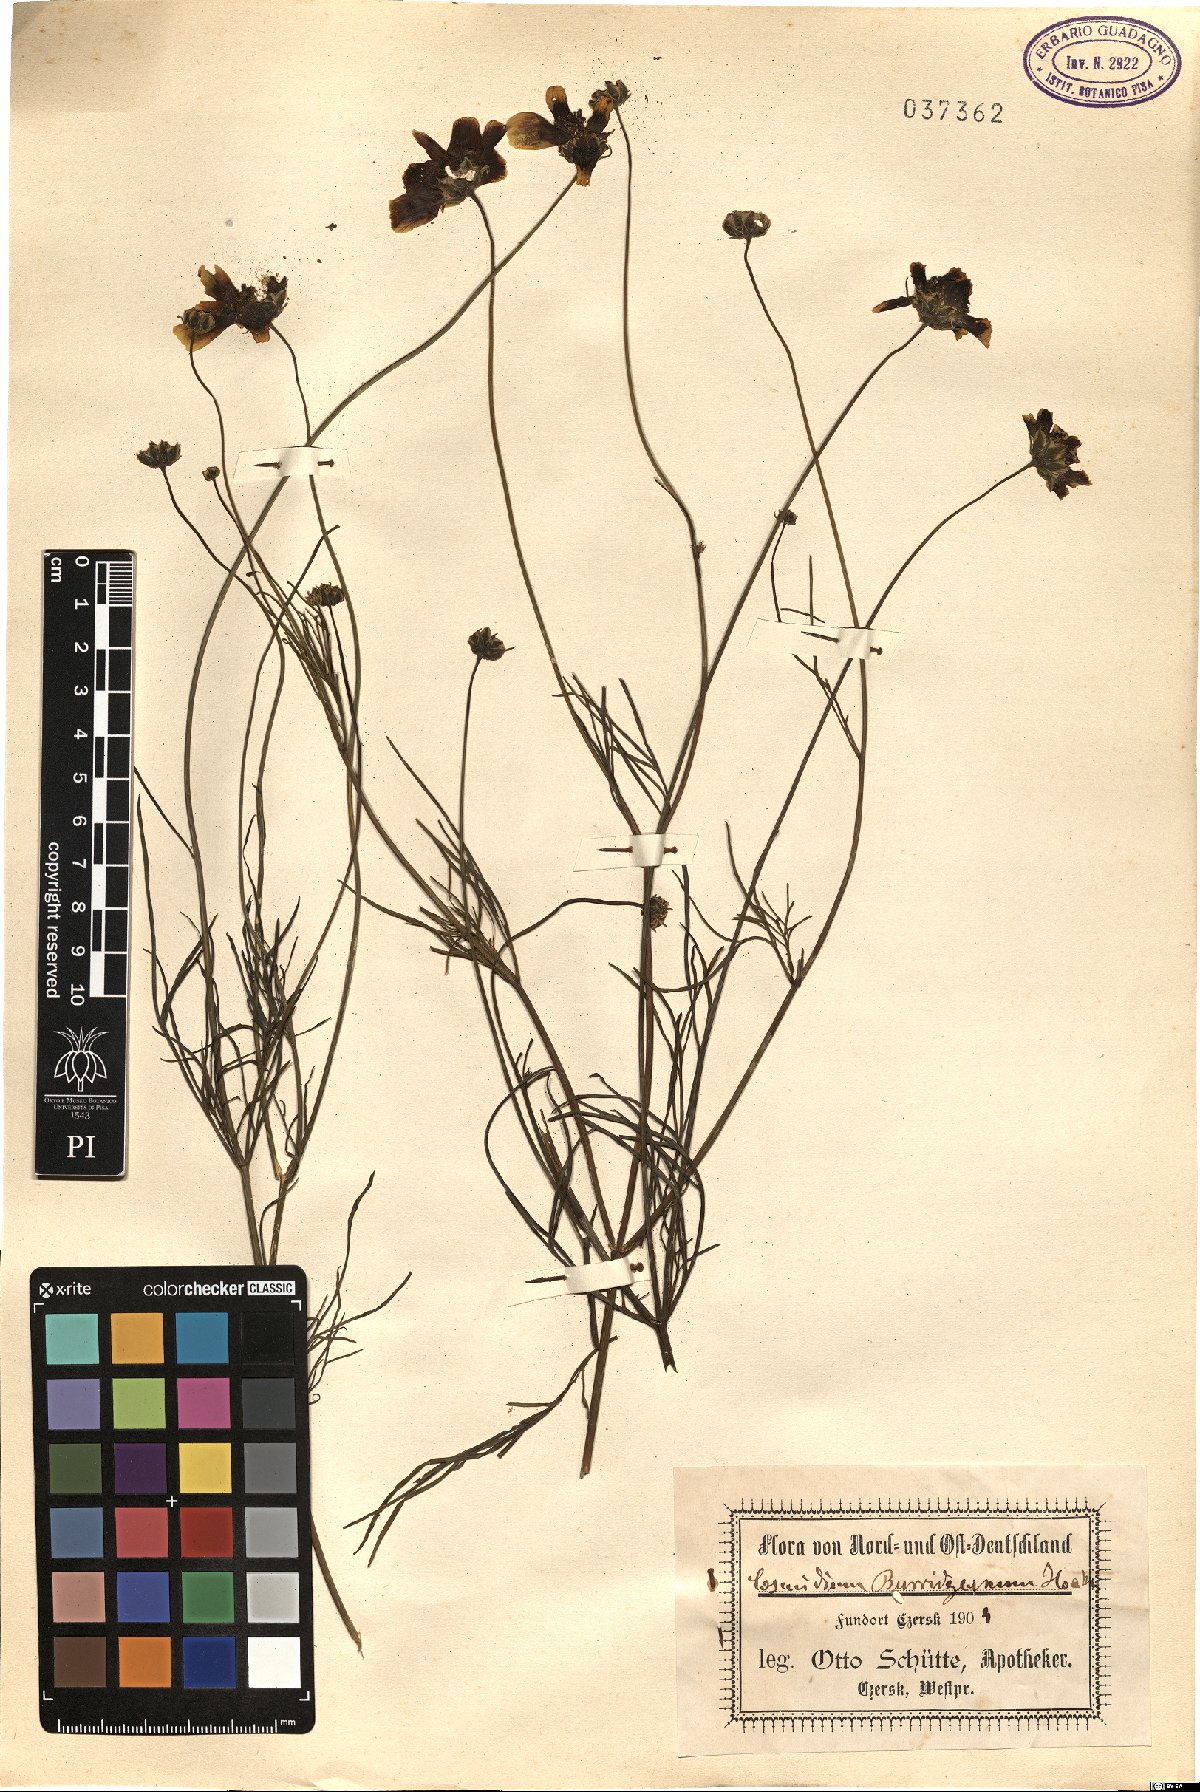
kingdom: Plantae
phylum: Tracheophyta
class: Magnoliopsida
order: Asterales
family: Asteraceae
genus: Thelesperma
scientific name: Thelesperma
